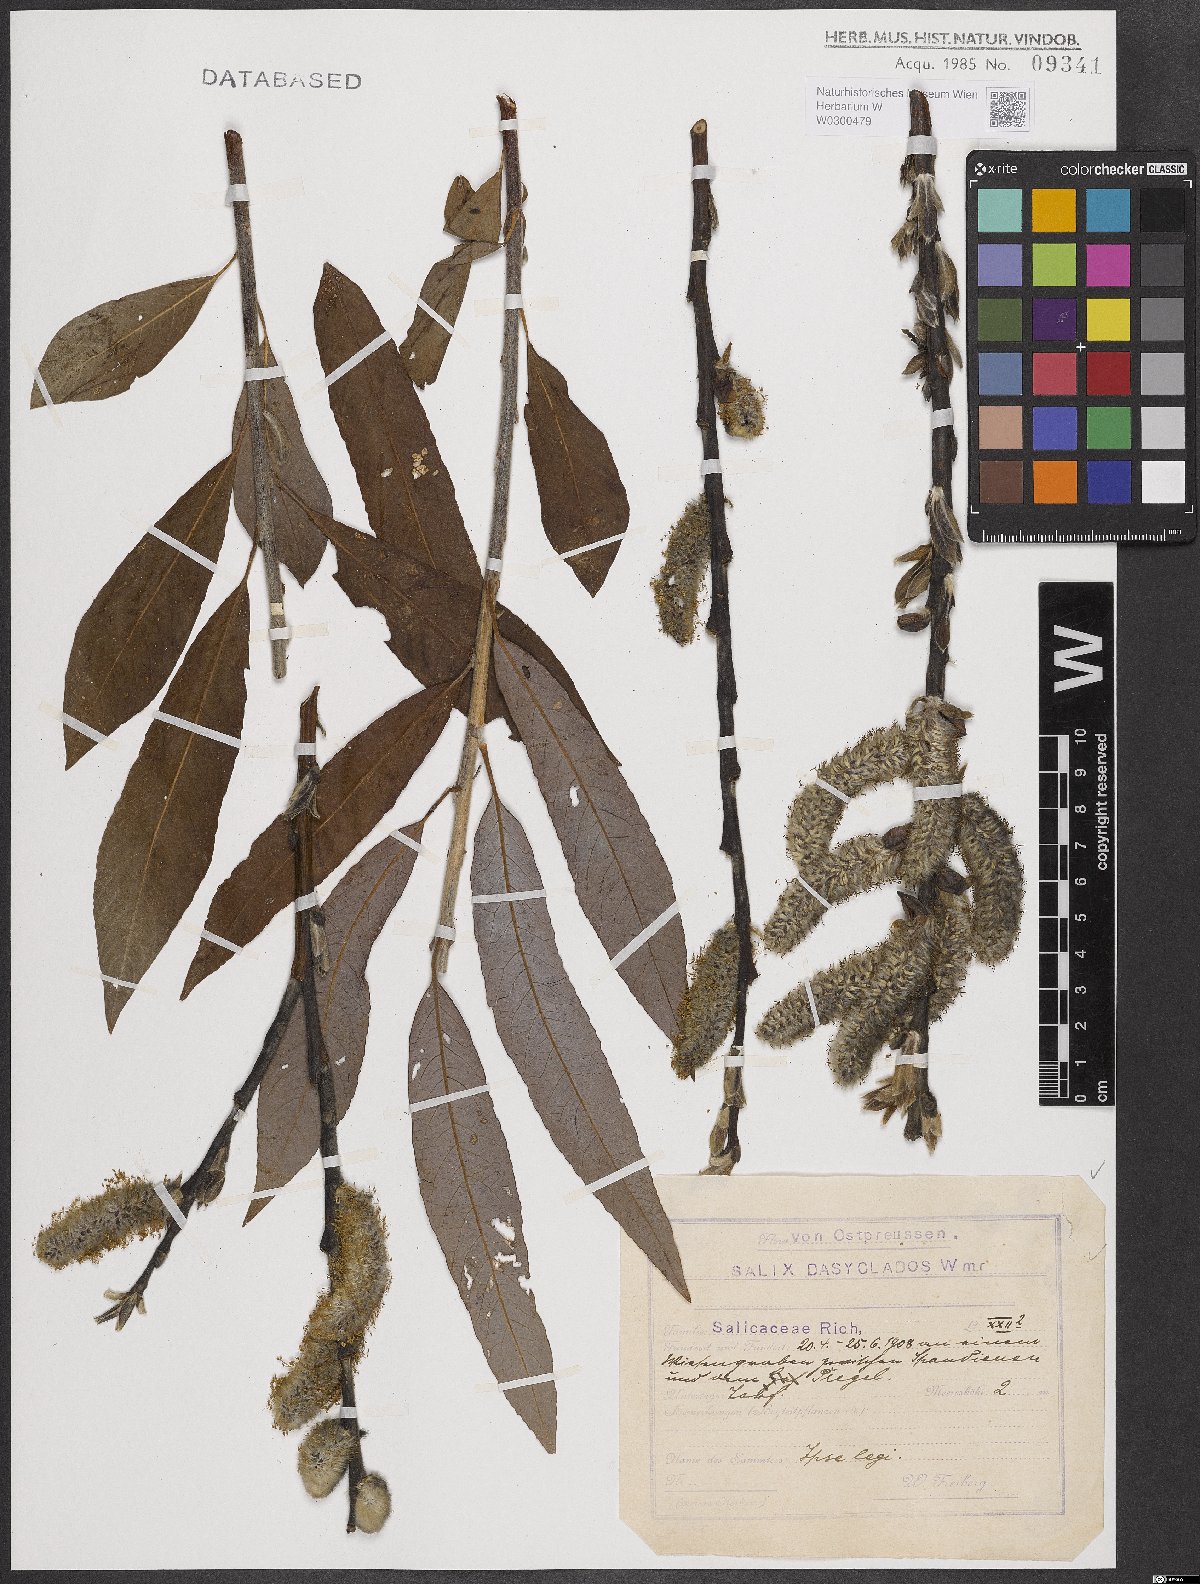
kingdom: Plantae
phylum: Tracheophyta
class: Magnoliopsida
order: Malpighiales
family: Salicaceae
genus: Salix
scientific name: Salix gmelinii
